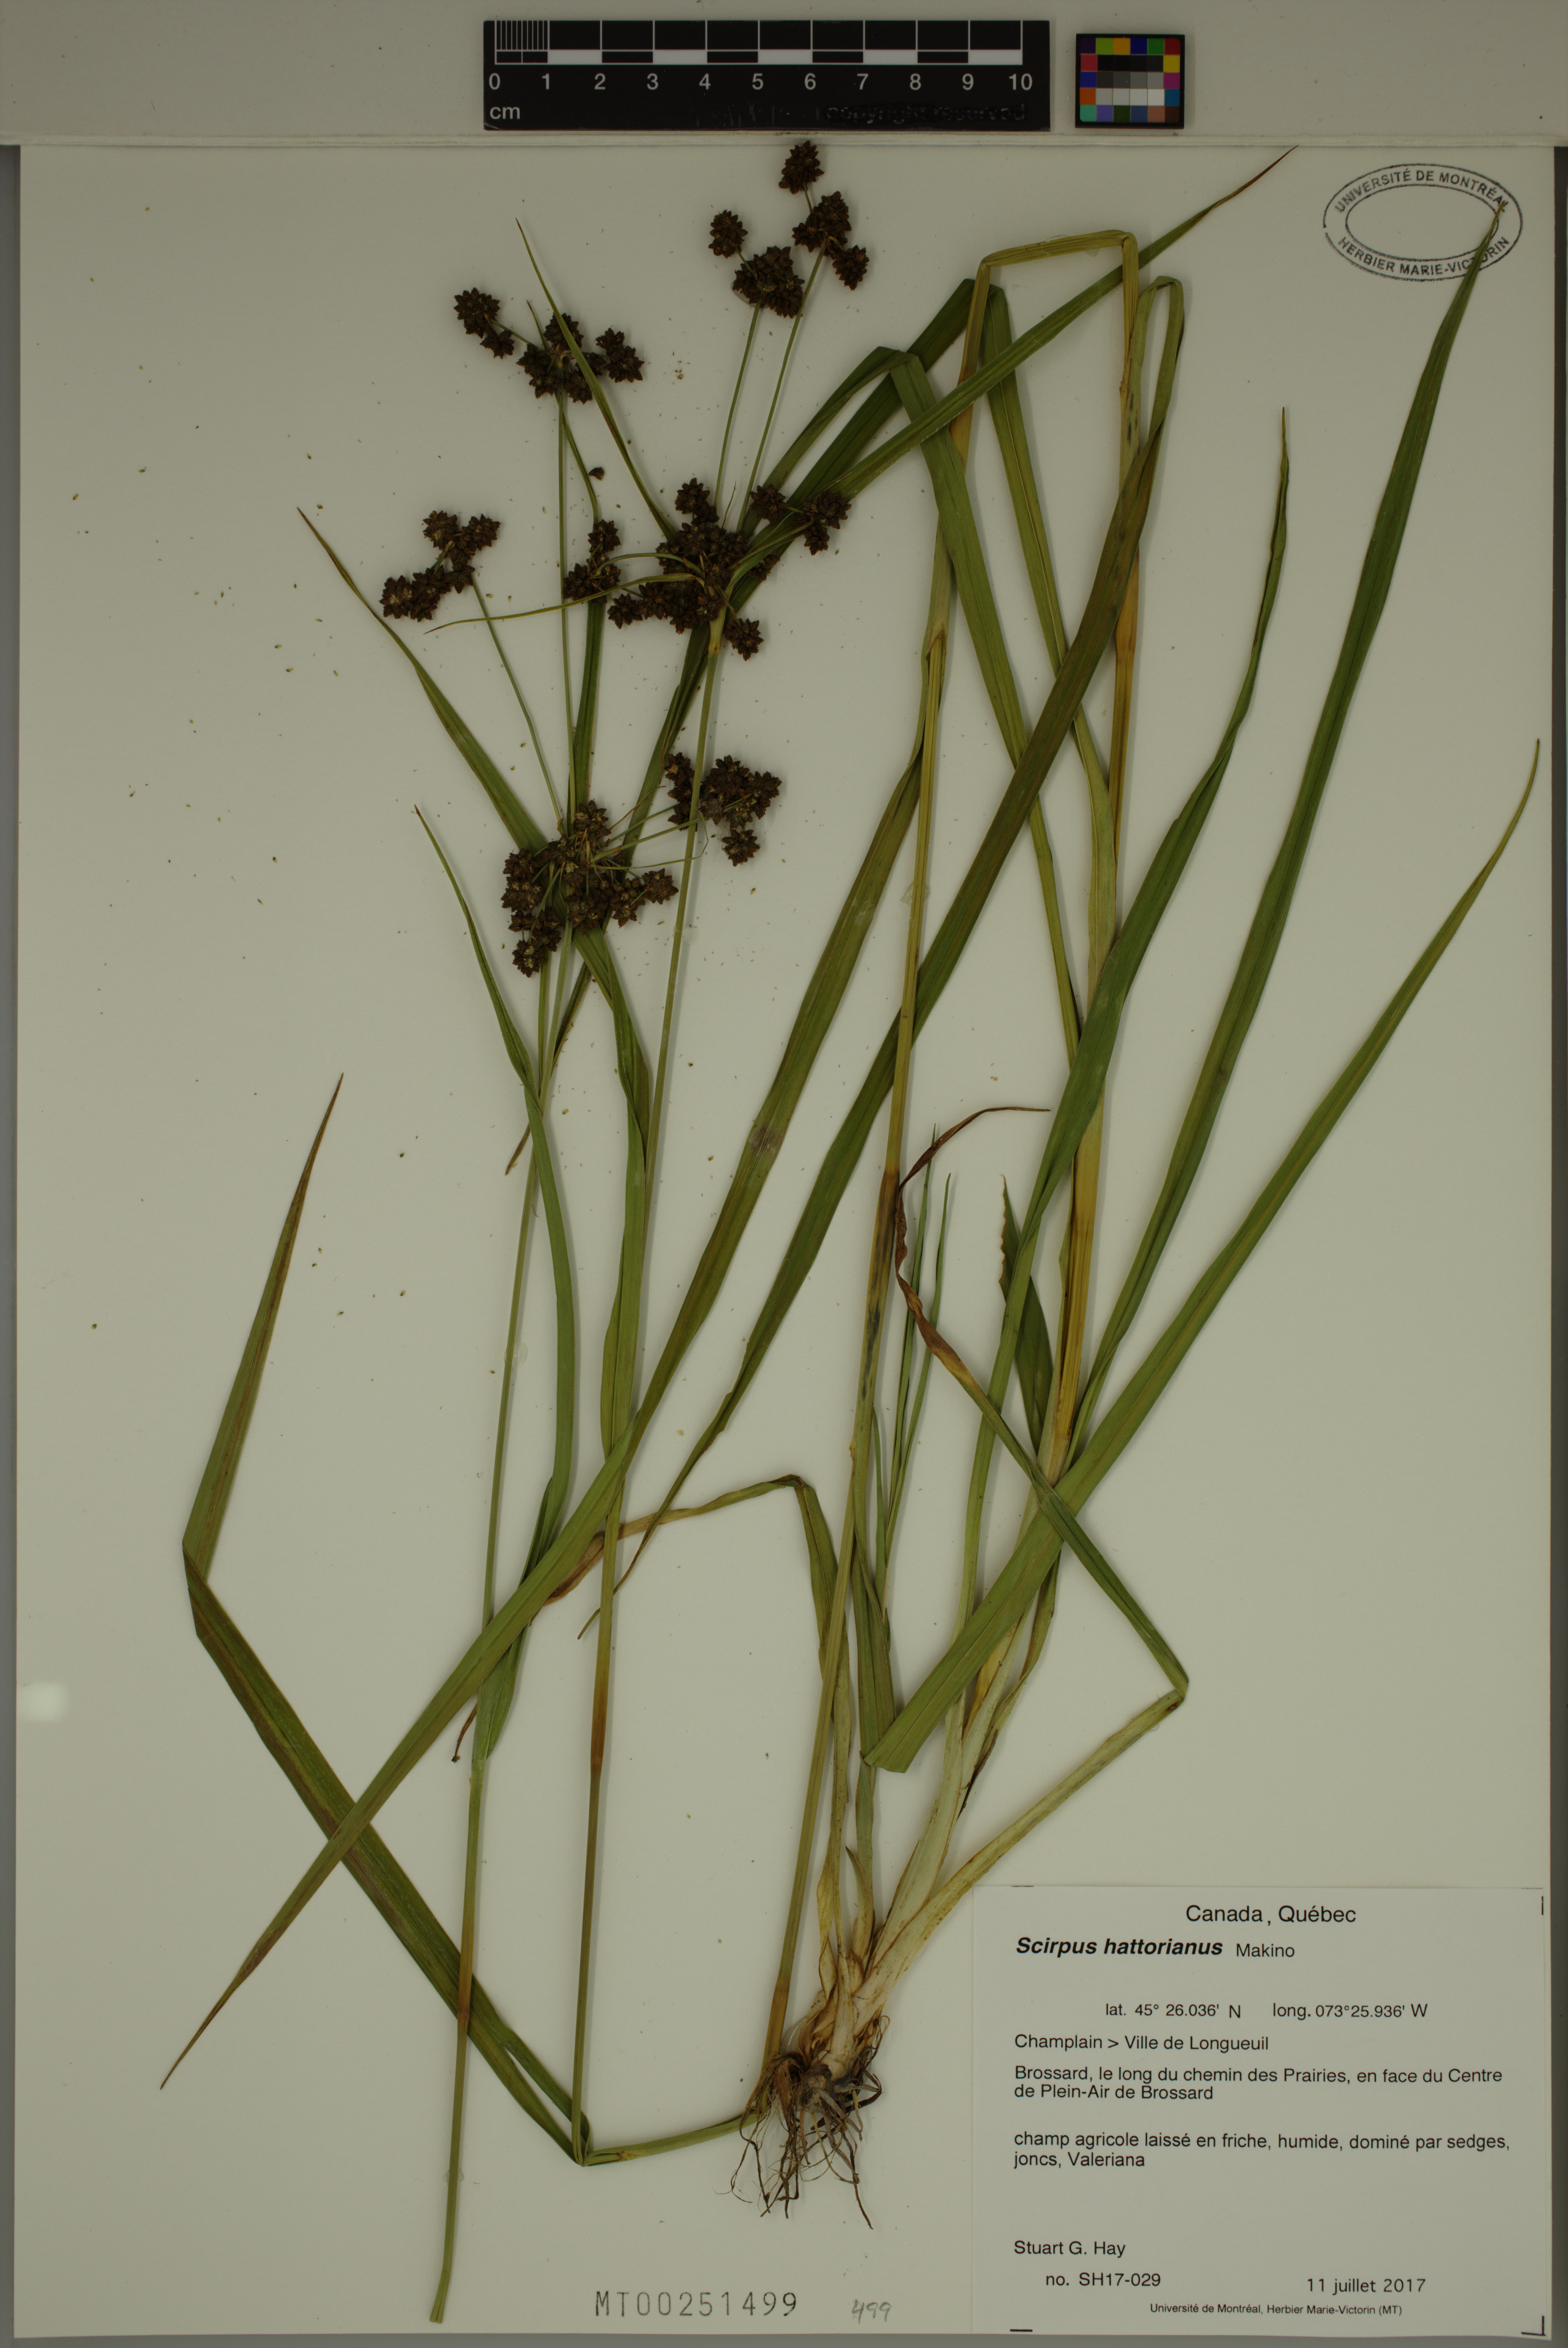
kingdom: Plantae
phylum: Tracheophyta
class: Liliopsida
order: Poales
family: Cyperaceae
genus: Scirpus
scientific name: Scirpus hattorianus
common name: Early dark-green bulrush
